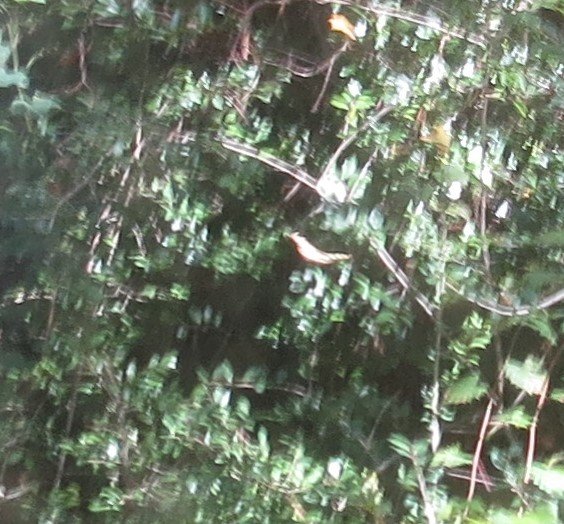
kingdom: Animalia
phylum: Arthropoda
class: Insecta
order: Lepidoptera
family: Nymphalidae
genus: Heliconius
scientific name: Heliconius charithonia
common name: Zebra Longwing
